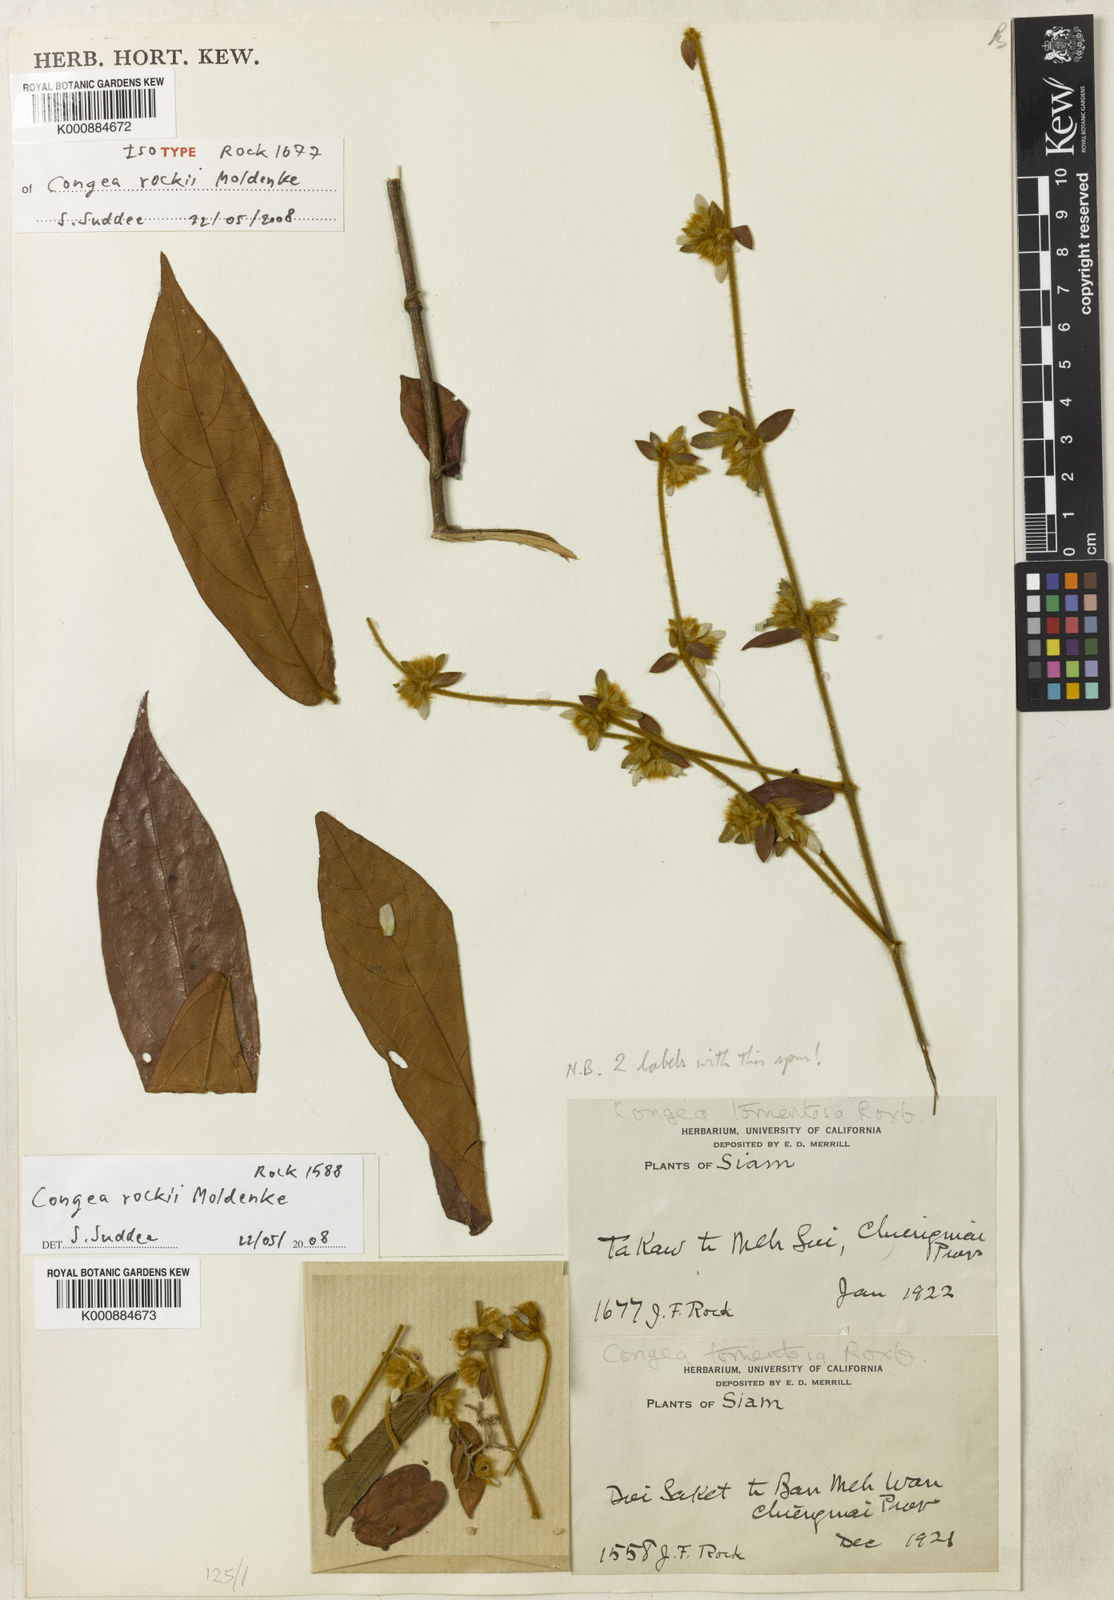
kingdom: Plantae
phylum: Tracheophyta
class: Magnoliopsida
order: Lamiales
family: Lamiaceae
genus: Congea
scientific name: Congea rockii
